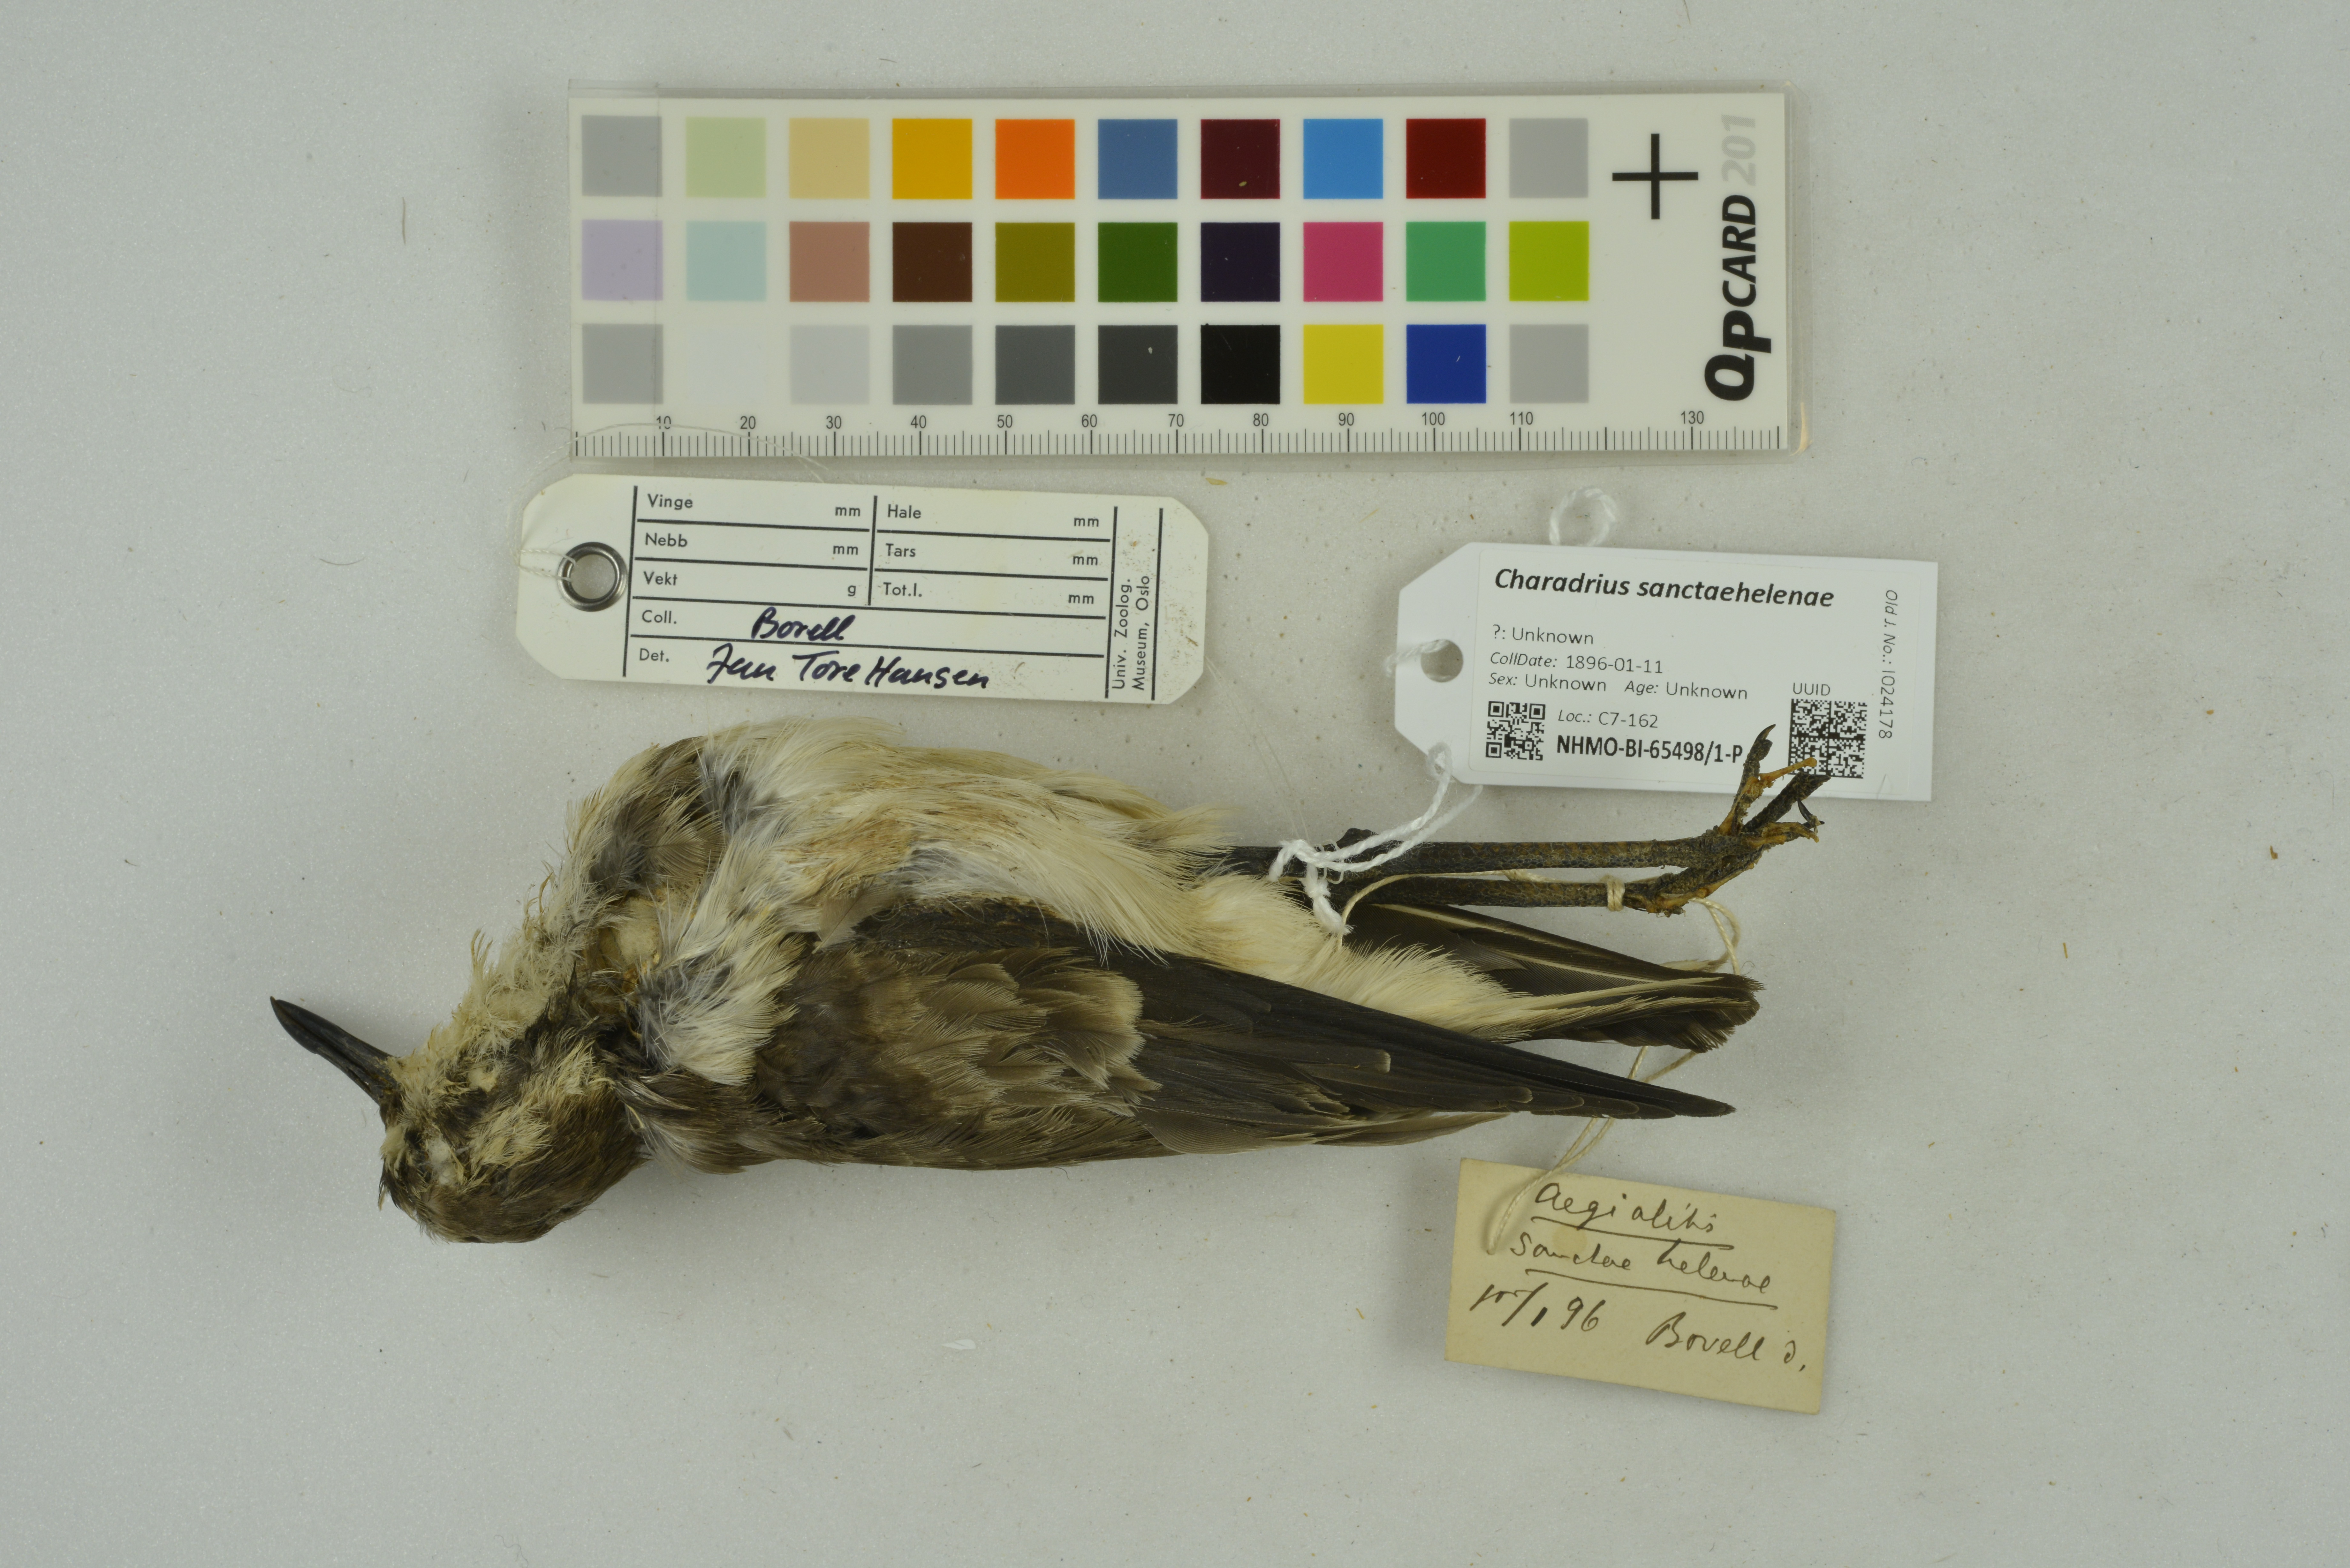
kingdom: Animalia
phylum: Chordata
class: Aves
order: Charadriiformes
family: Charadriidae
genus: Charadrius
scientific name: Charadrius sanctaehelenae
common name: St. helena plover
